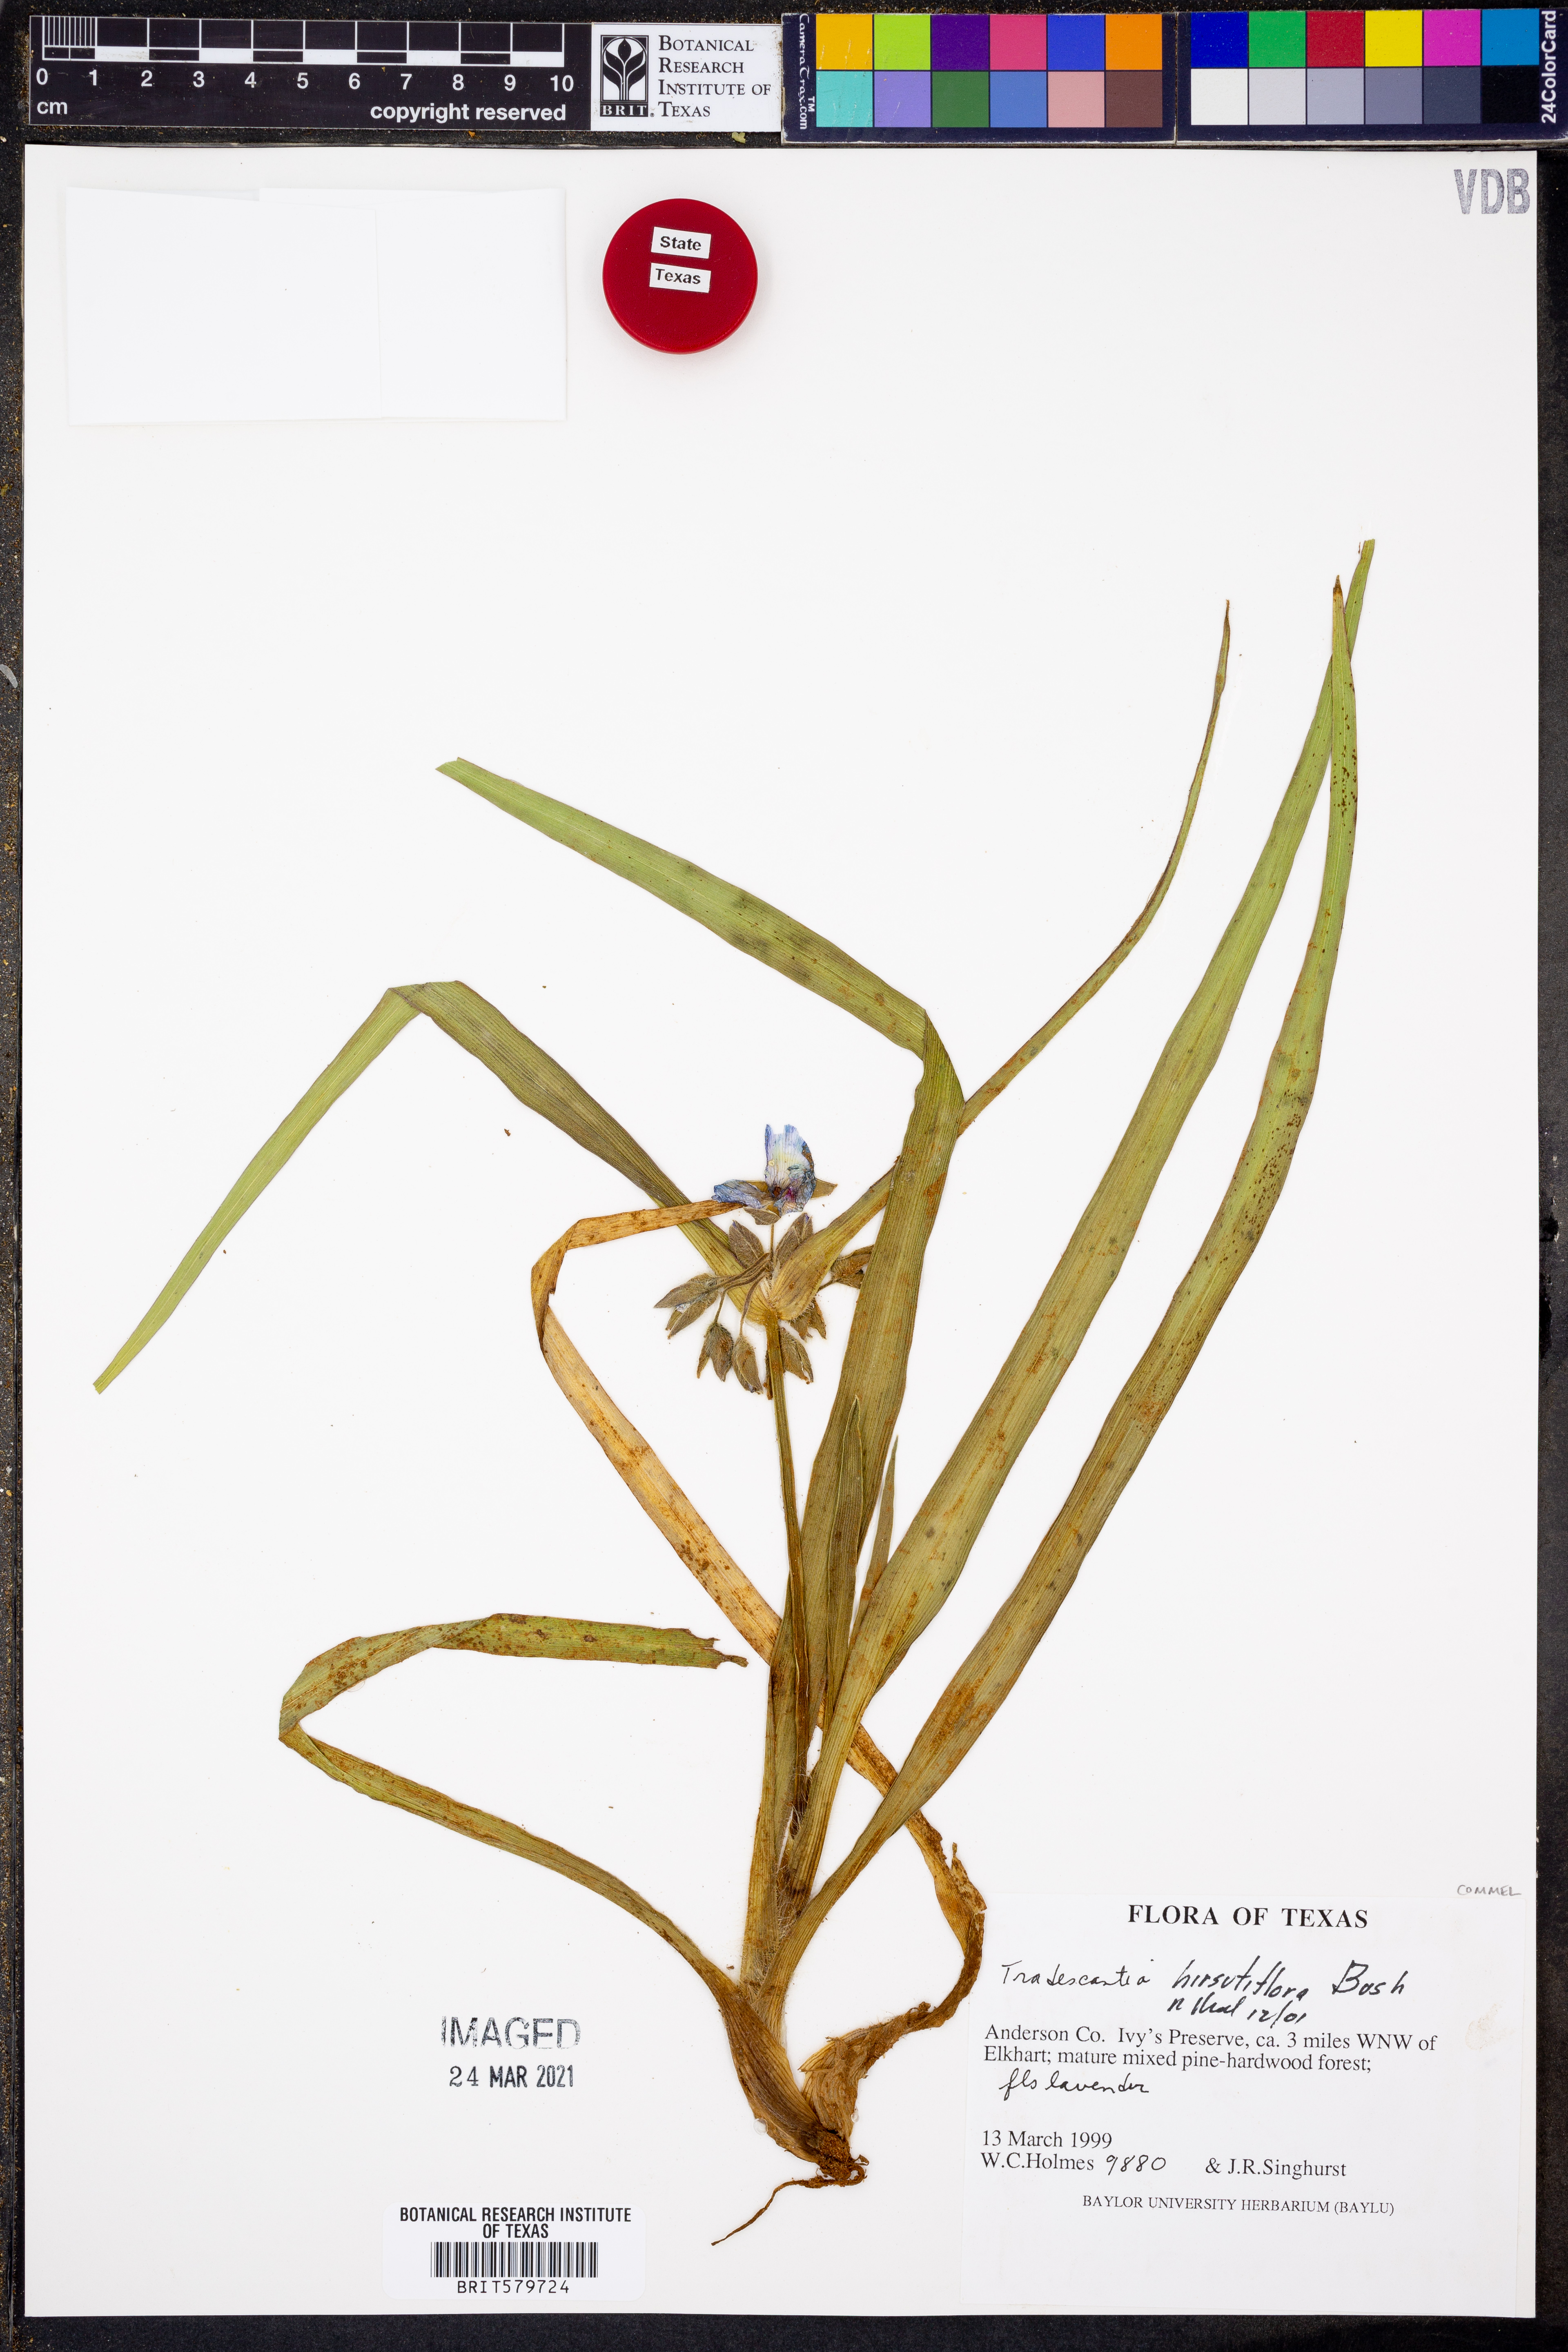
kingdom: Plantae
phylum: Tracheophyta
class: Liliopsida
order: Commelinales
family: Commelinaceae
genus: Tradescantia
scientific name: Tradescantia hirsutiflora
